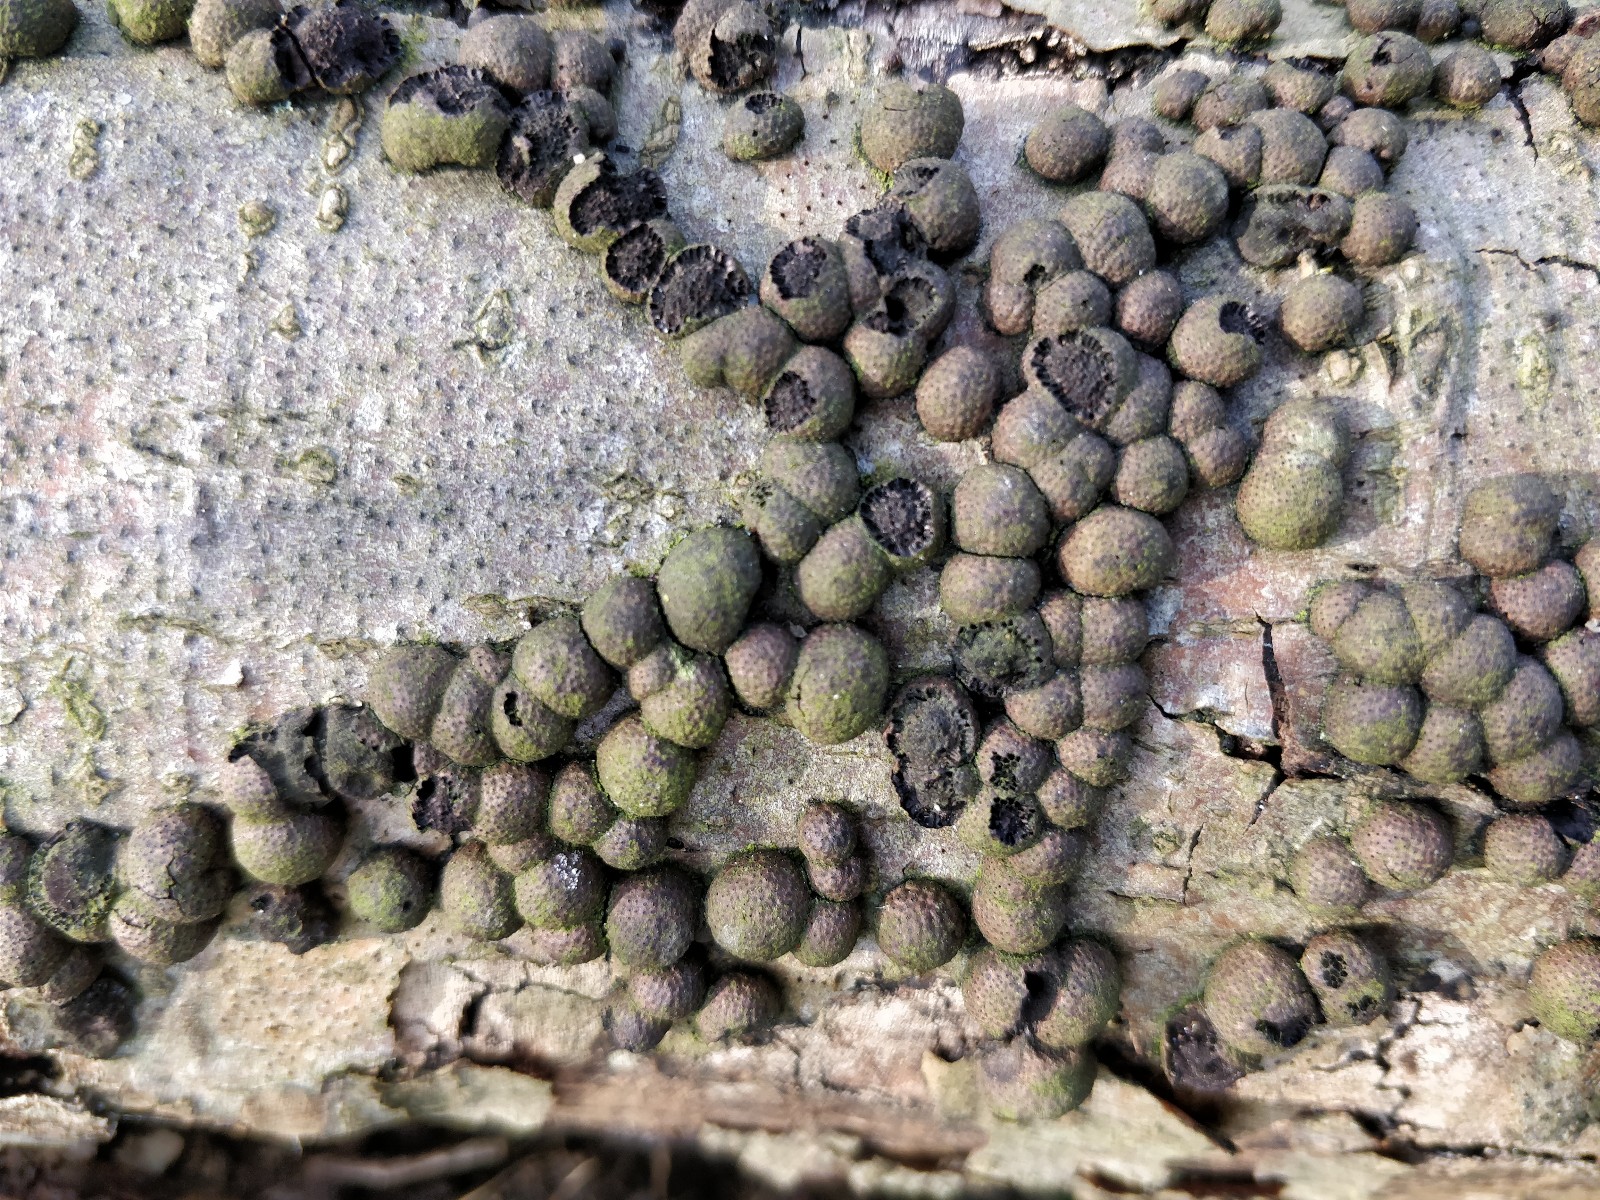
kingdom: Fungi
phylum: Ascomycota
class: Sordariomycetes
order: Xylariales
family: Hypoxylaceae
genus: Hypoxylon
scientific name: Hypoxylon fragiforme
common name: kuljordbær
